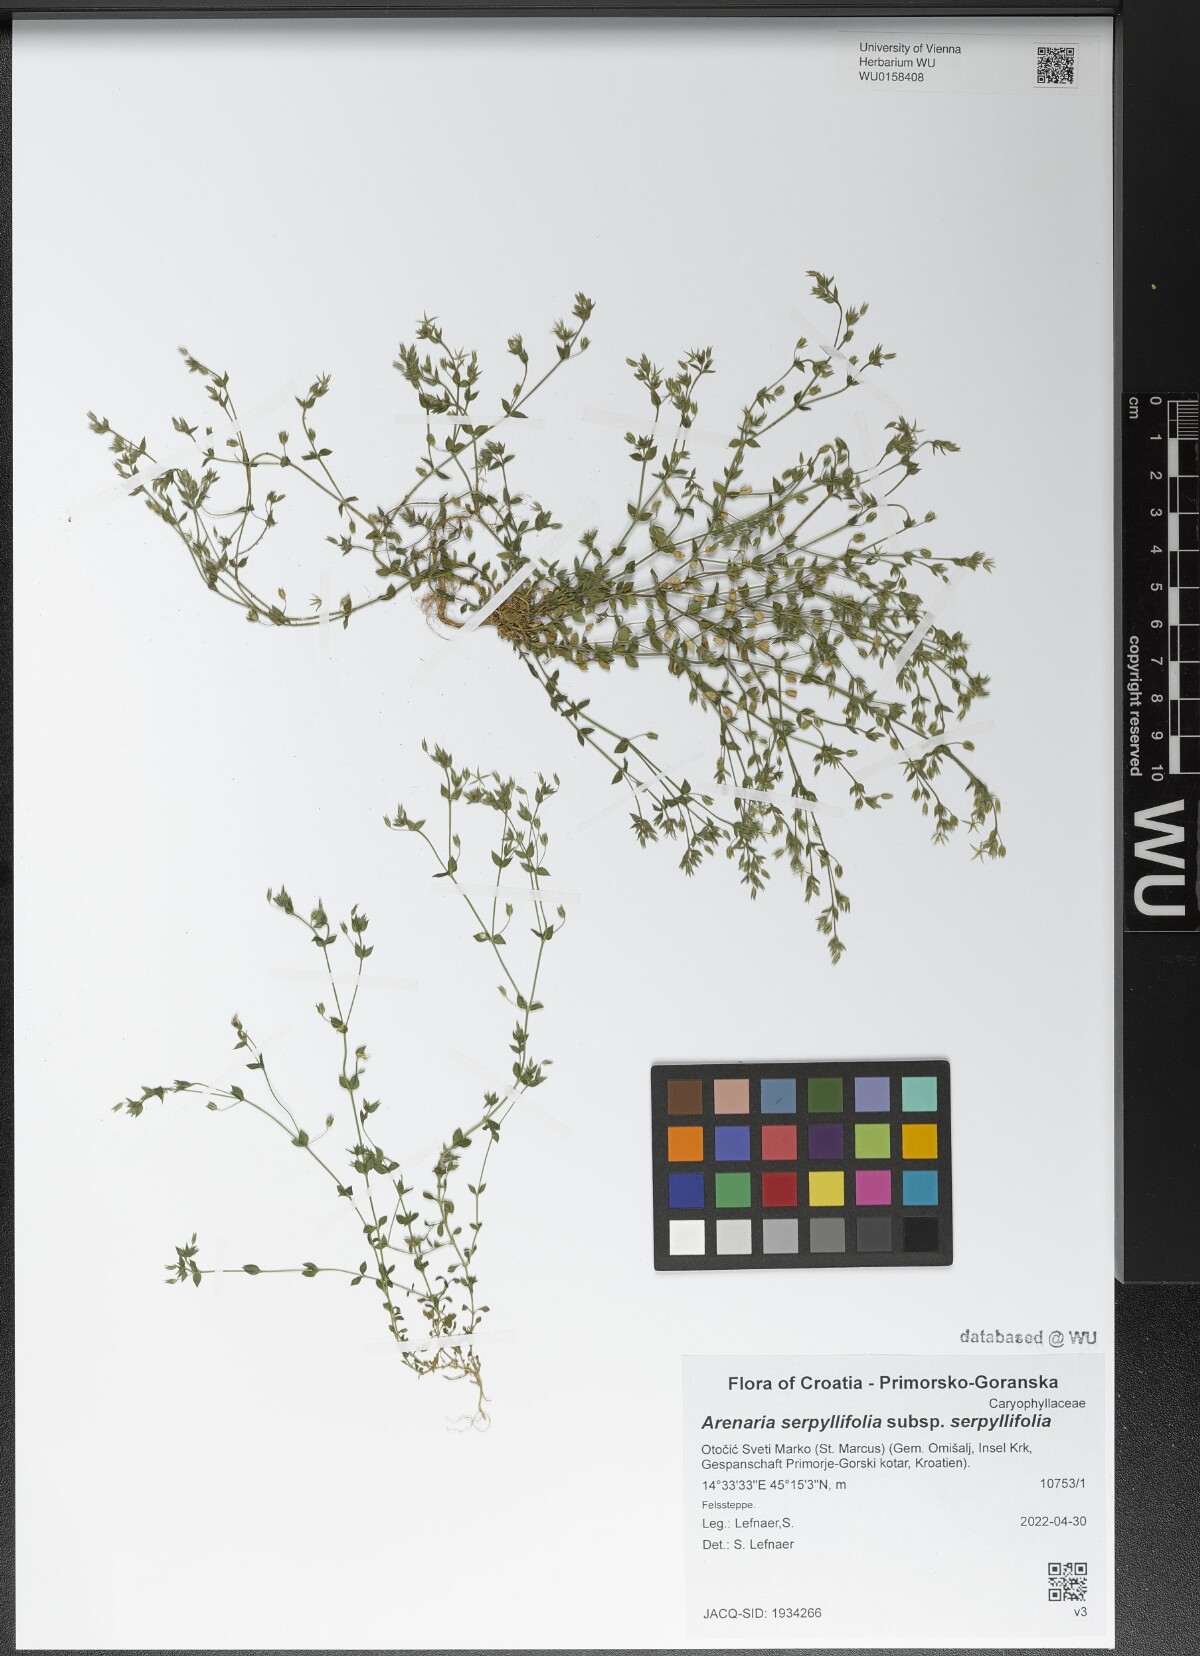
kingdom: Plantae
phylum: Tracheophyta
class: Magnoliopsida
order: Caryophyllales
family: Caryophyllaceae
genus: Arenaria
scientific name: Arenaria serpyllifolia
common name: Thyme-leaved sandwort
